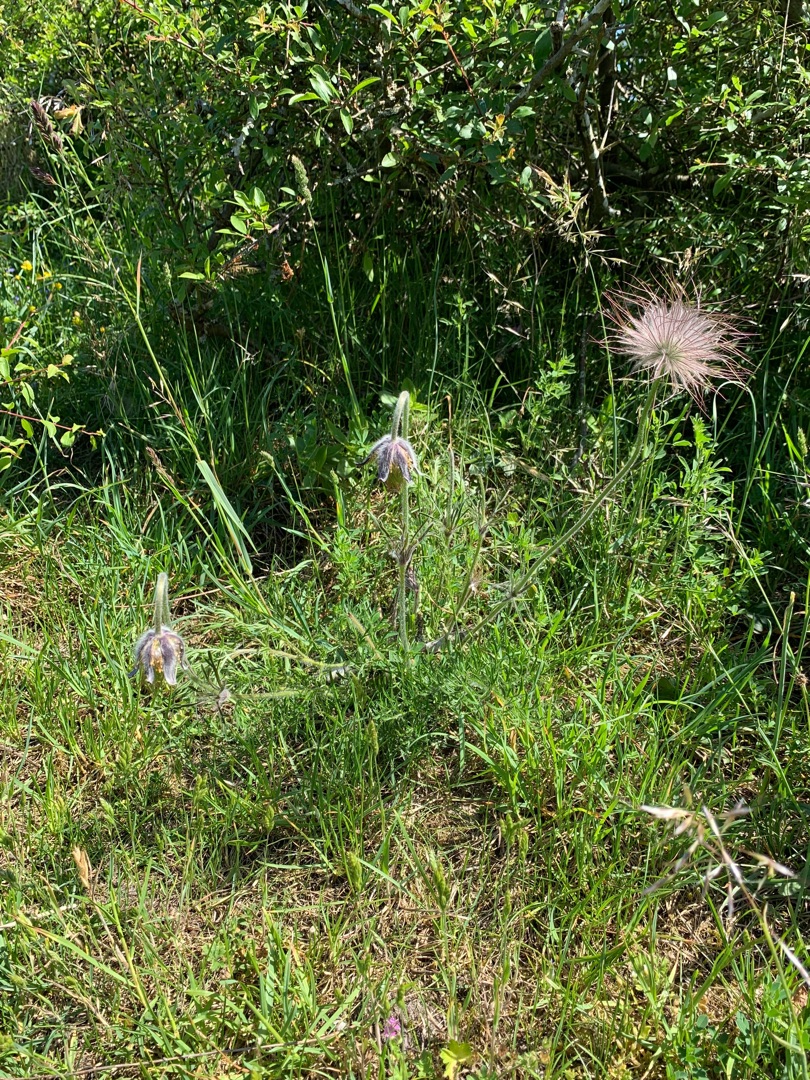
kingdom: Plantae
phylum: Tracheophyta
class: Magnoliopsida
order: Ranunculales
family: Ranunculaceae
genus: Pulsatilla
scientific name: Pulsatilla pratensis
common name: Nikkende kobjælde
